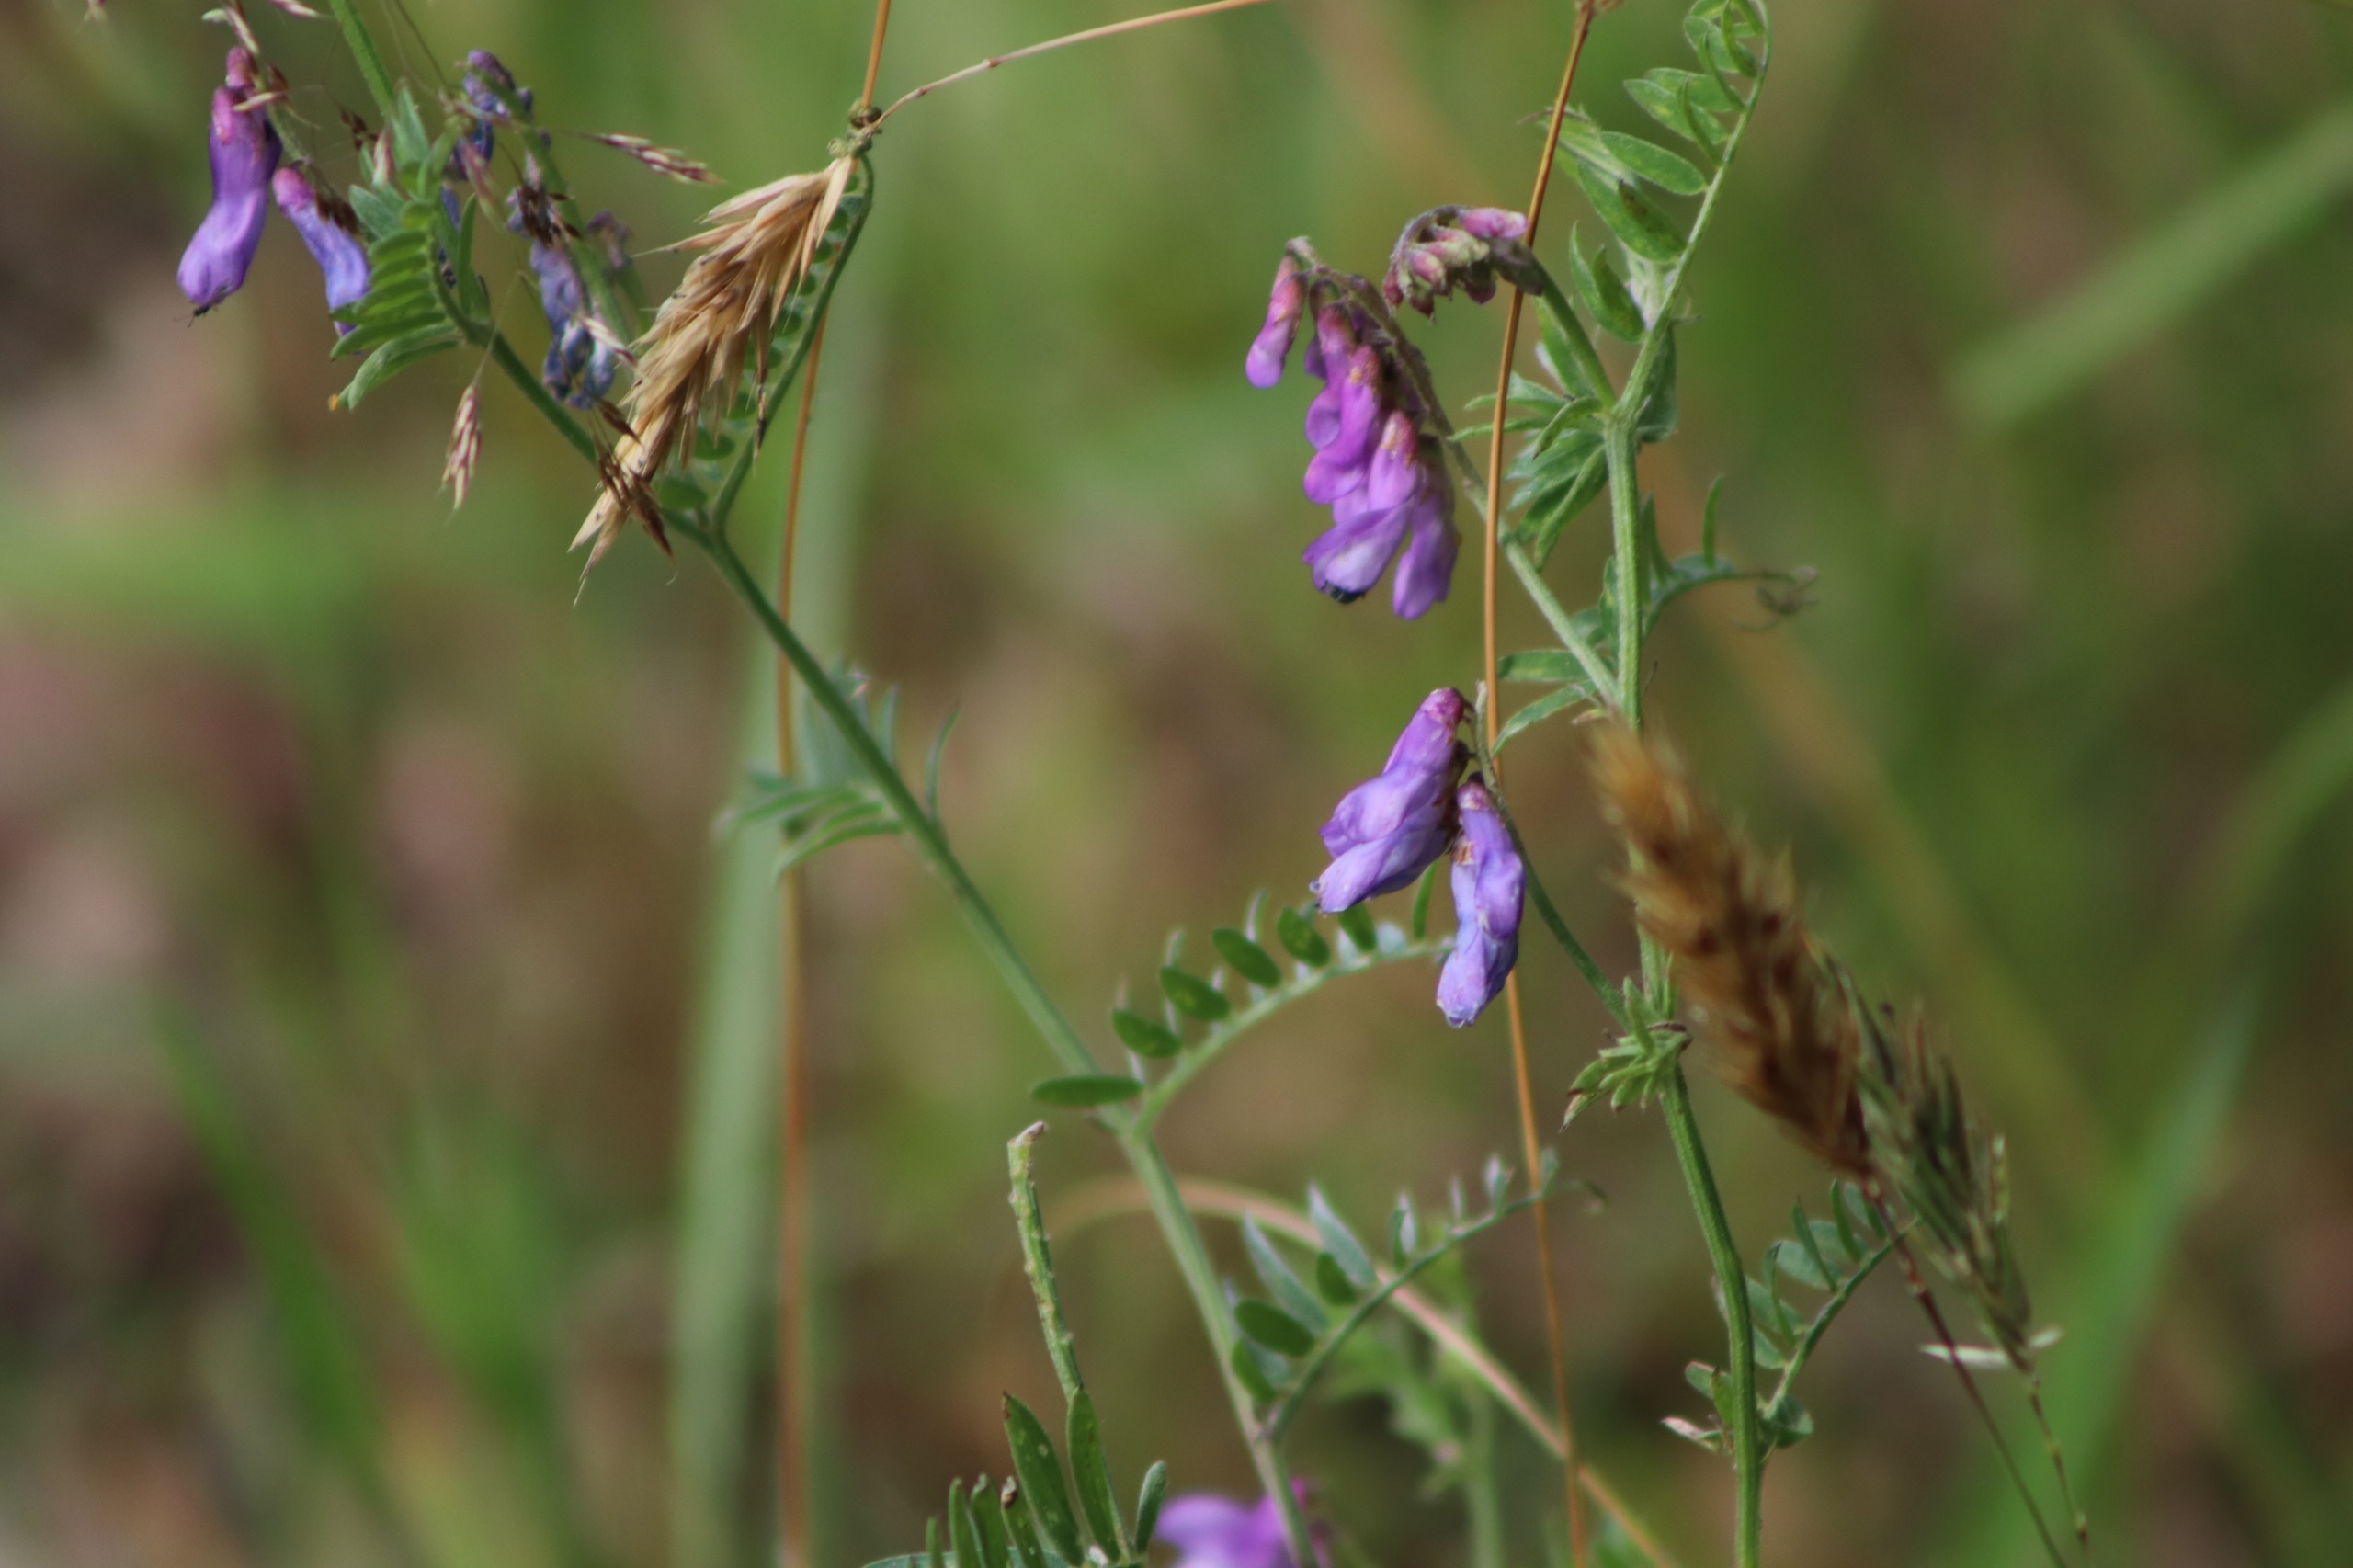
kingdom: Plantae
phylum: Tracheophyta
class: Magnoliopsida
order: Fabales
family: Fabaceae
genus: Vicia
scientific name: Vicia cracca
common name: Muse-vikke
